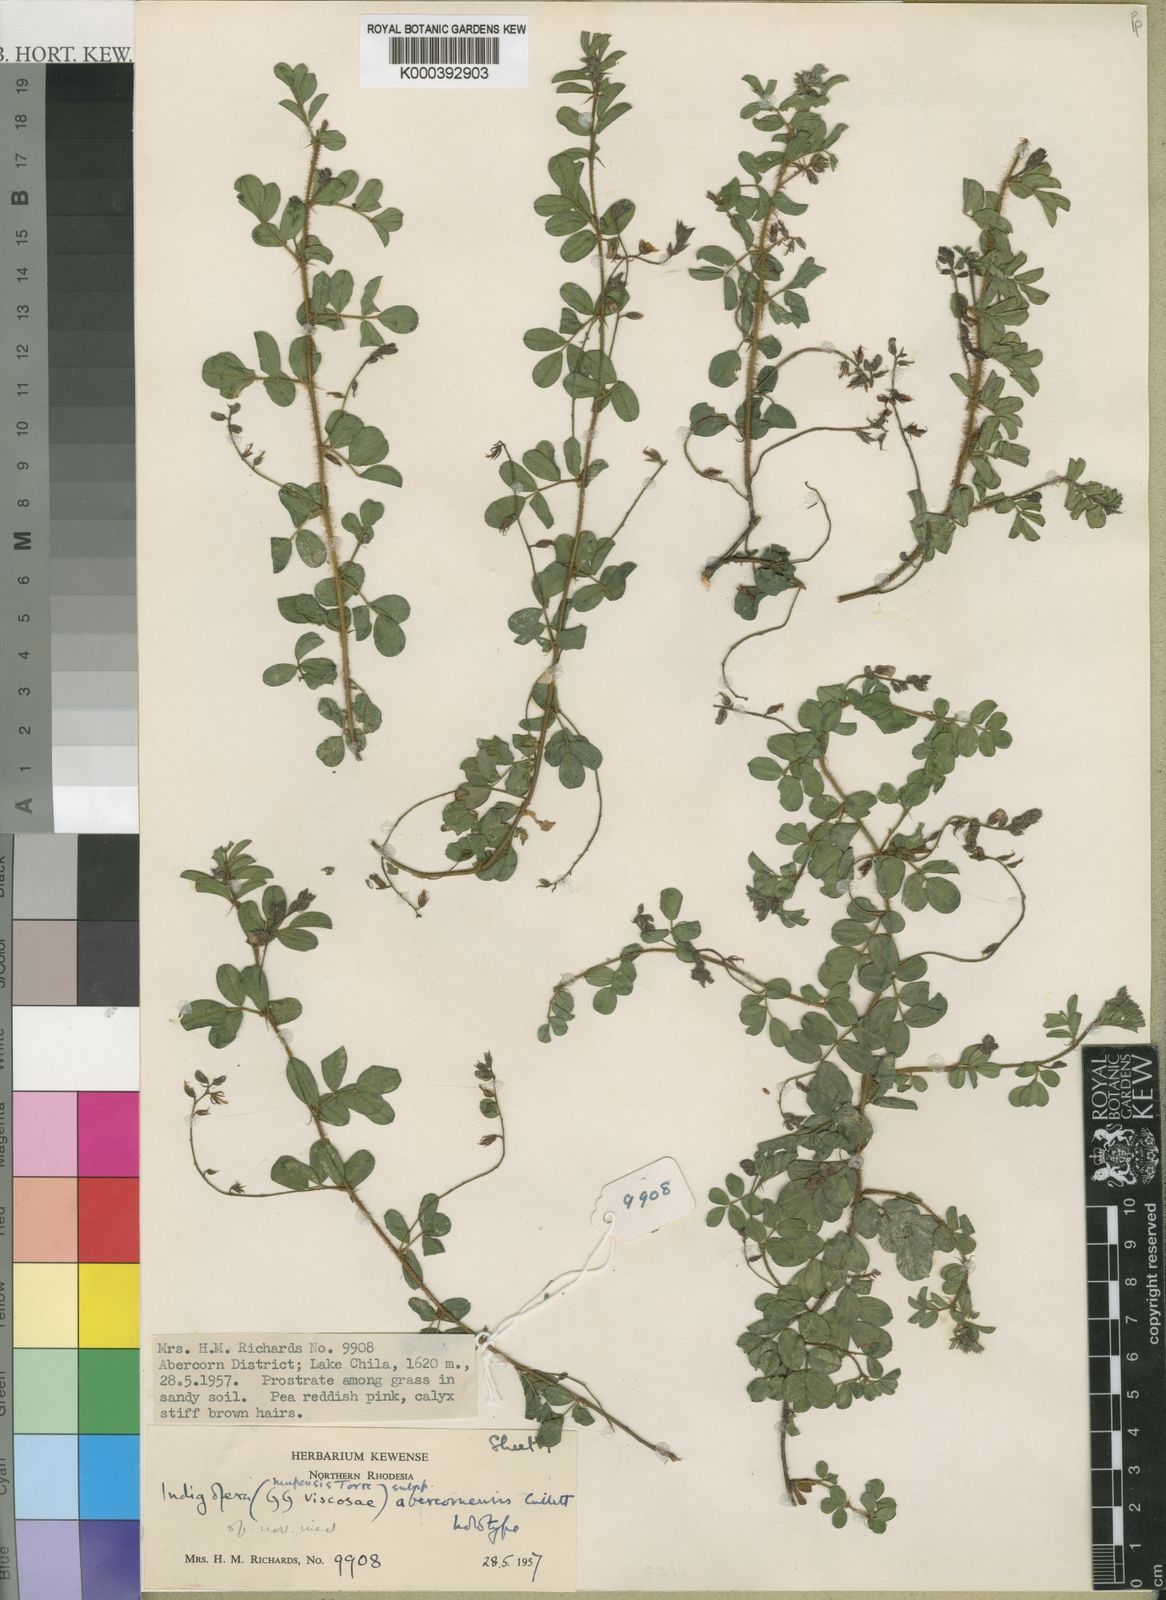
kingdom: Plantae
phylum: Tracheophyta
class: Magnoliopsida
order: Fabales
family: Fabaceae
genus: Indigofera
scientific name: Indigofera mupensis
